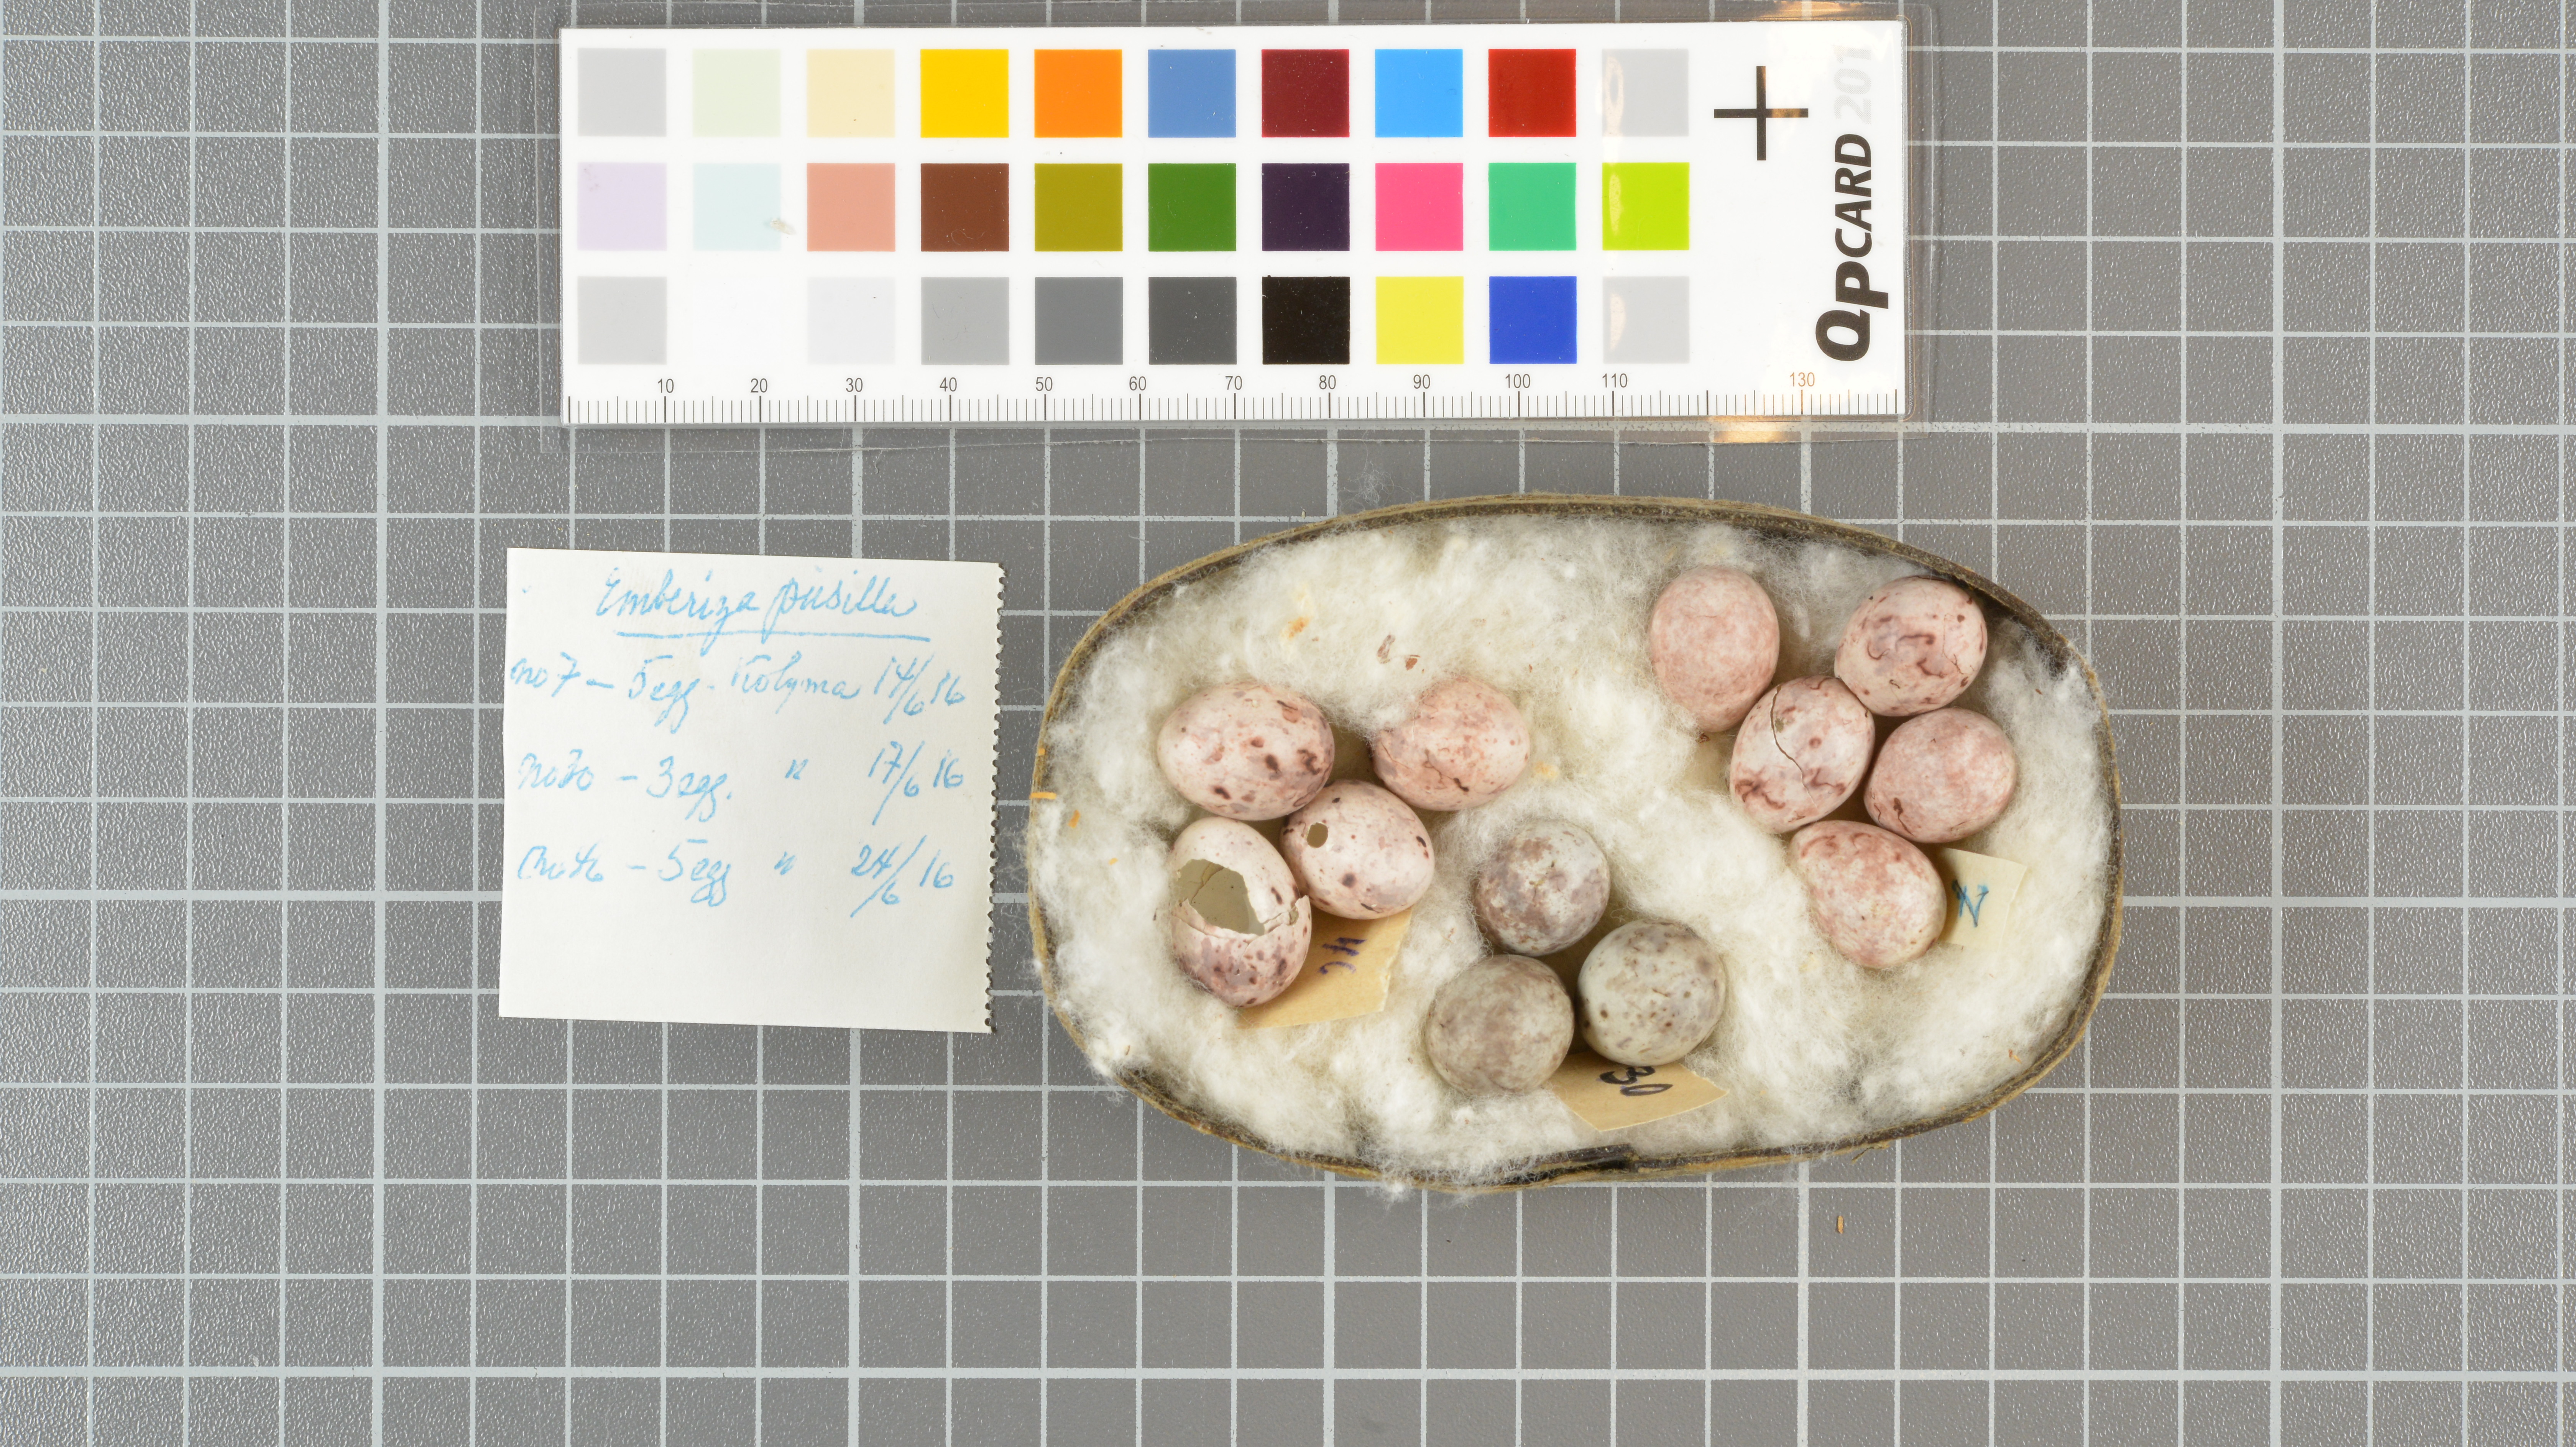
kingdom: Animalia
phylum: Chordata
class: Aves
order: Passeriformes
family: Emberizidae
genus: Emberiza
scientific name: Emberiza pusilla
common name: Little bunting
